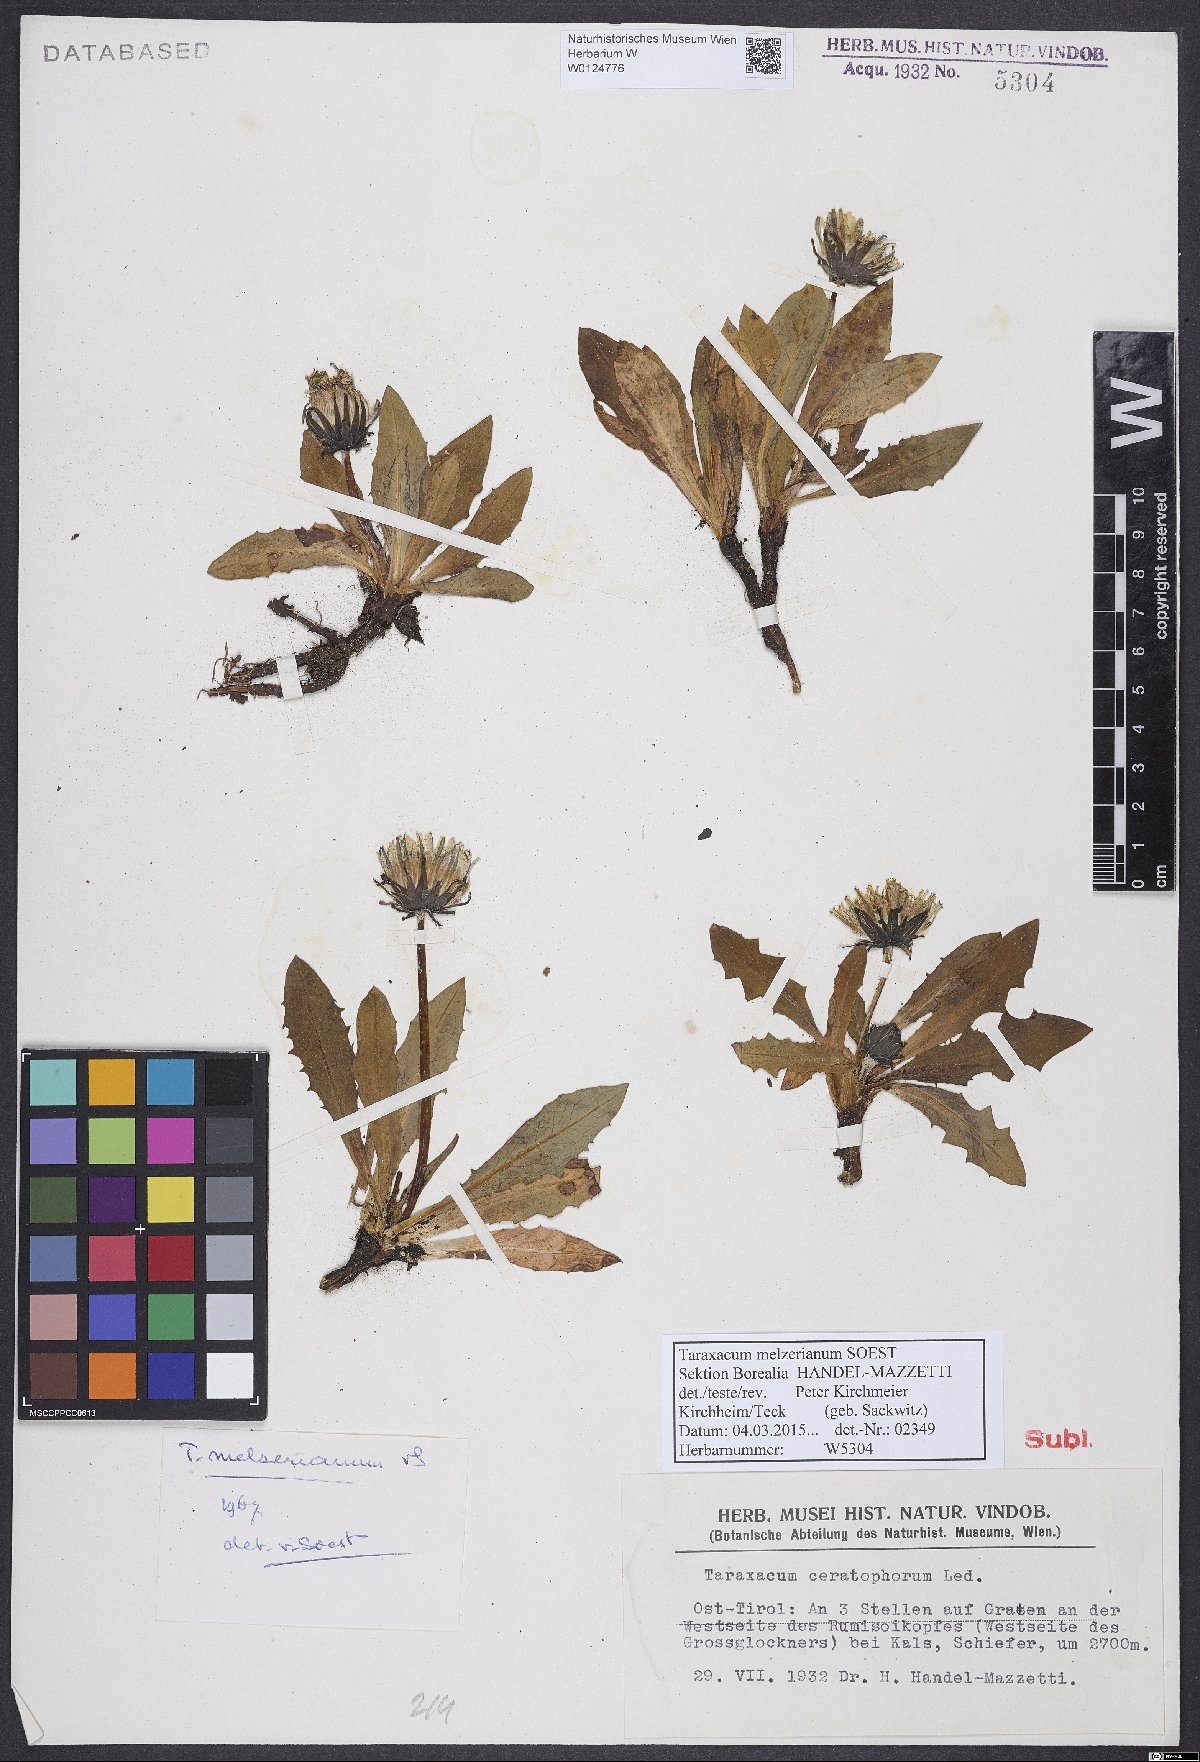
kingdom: Plantae
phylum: Tracheophyta
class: Magnoliopsida
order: Asterales
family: Asteraceae
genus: Taraxacum
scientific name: Taraxacum melzerianum
